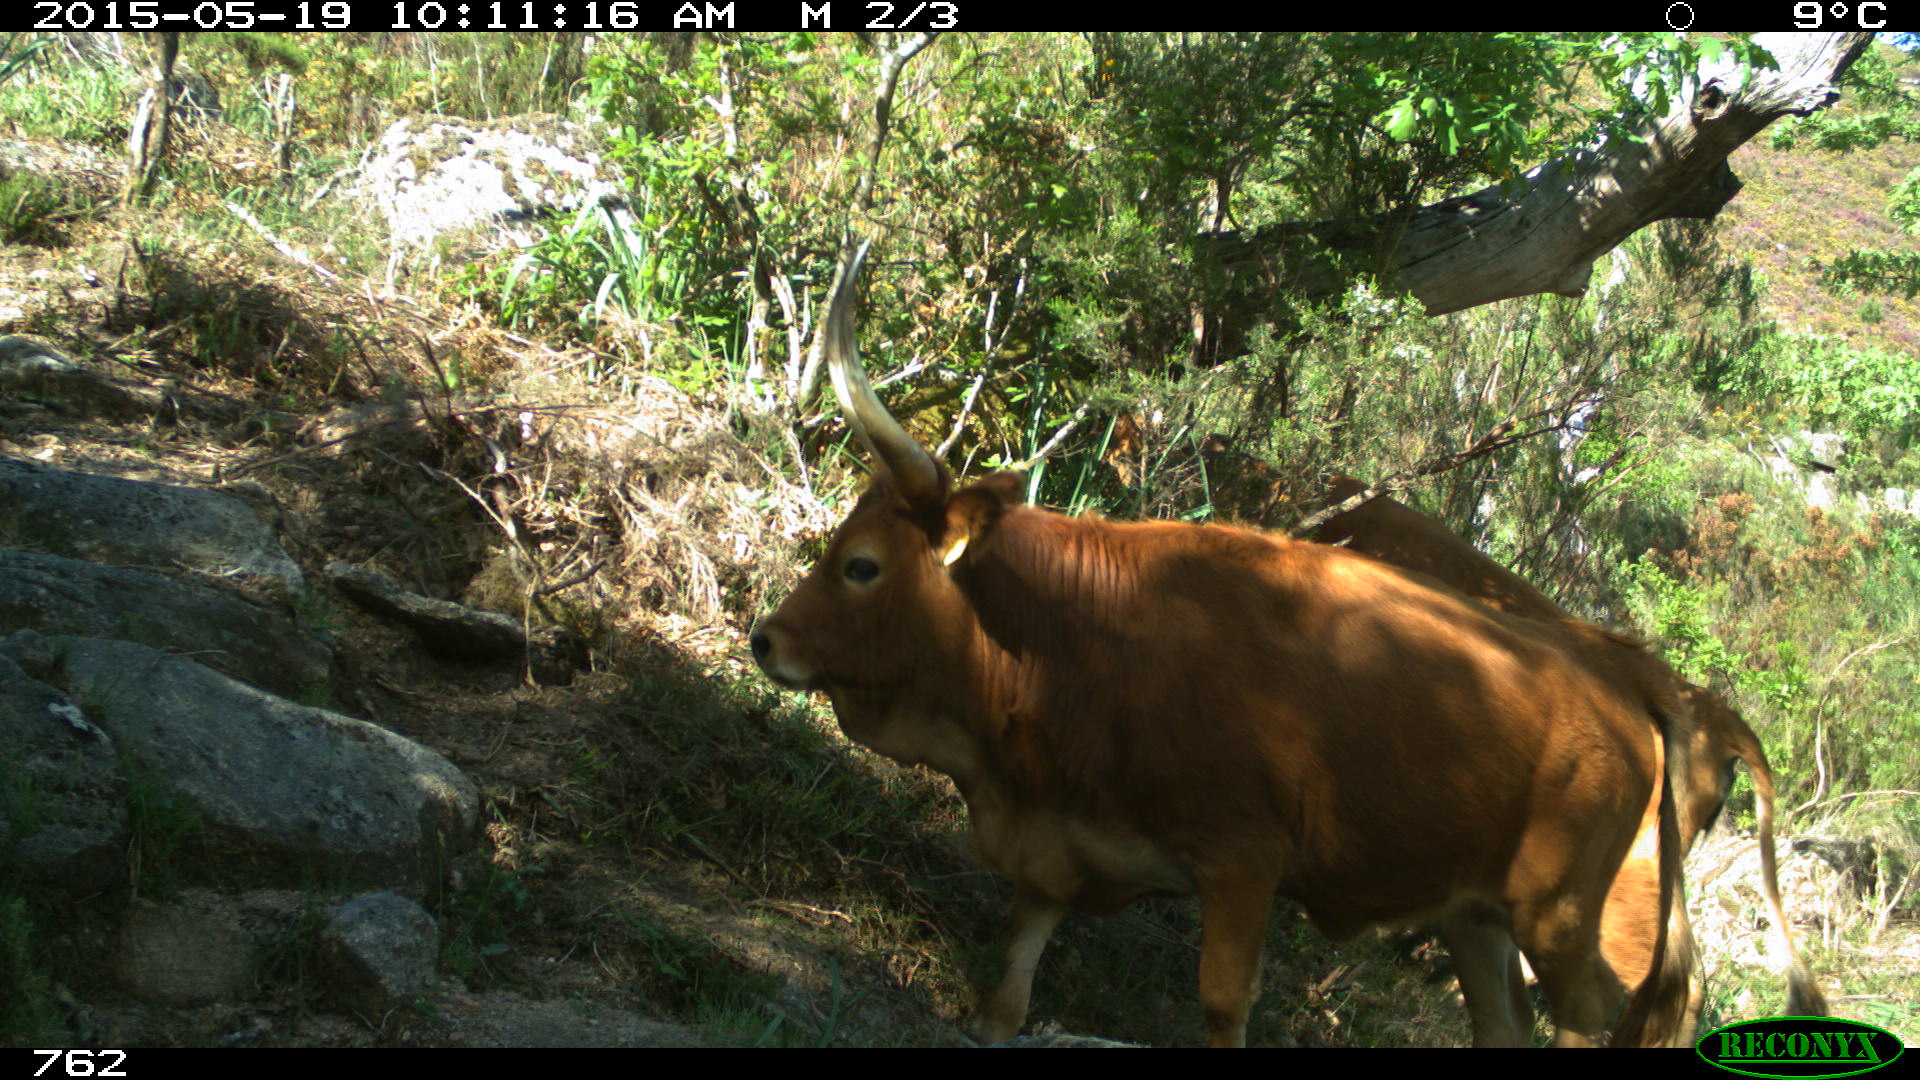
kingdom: Animalia
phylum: Chordata
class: Mammalia
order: Artiodactyla
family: Bovidae
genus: Bos
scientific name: Bos taurus
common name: Domesticated cattle
